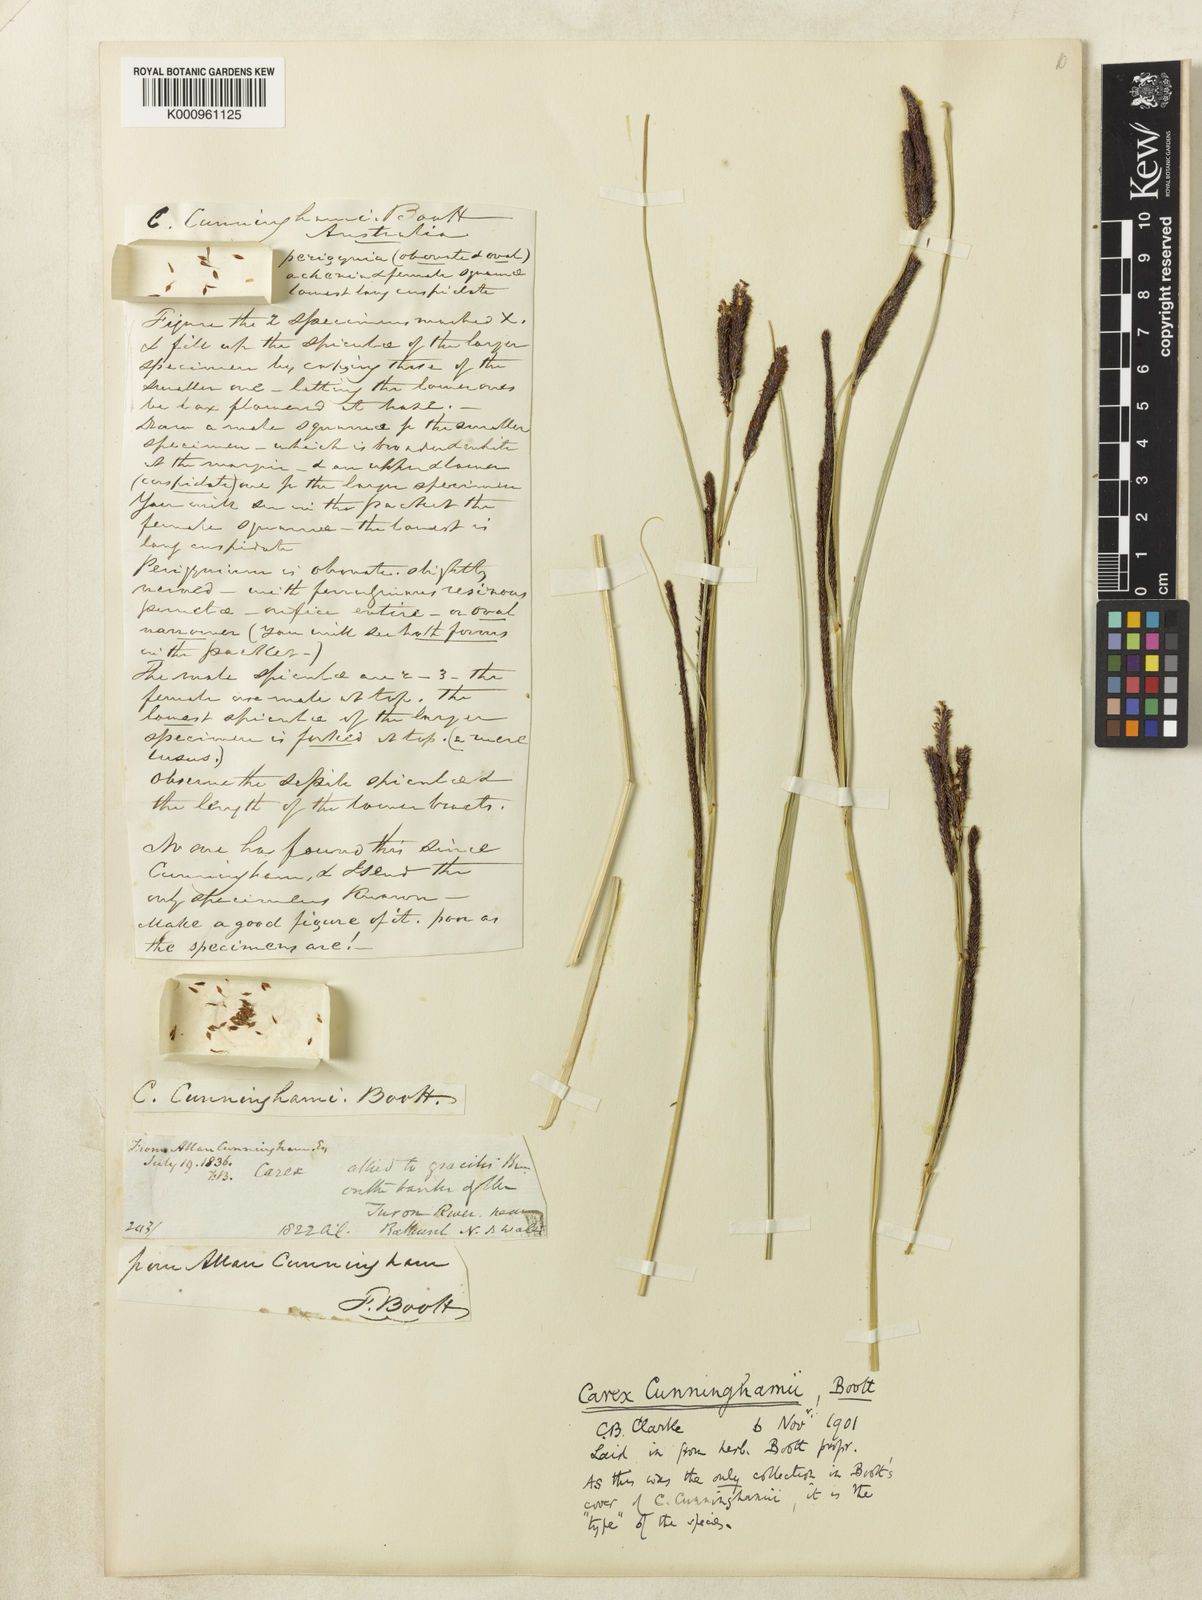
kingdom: Plantae
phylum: Tracheophyta
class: Liliopsida
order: Poales
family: Cyperaceae
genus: Carex
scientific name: Carex polyantha
